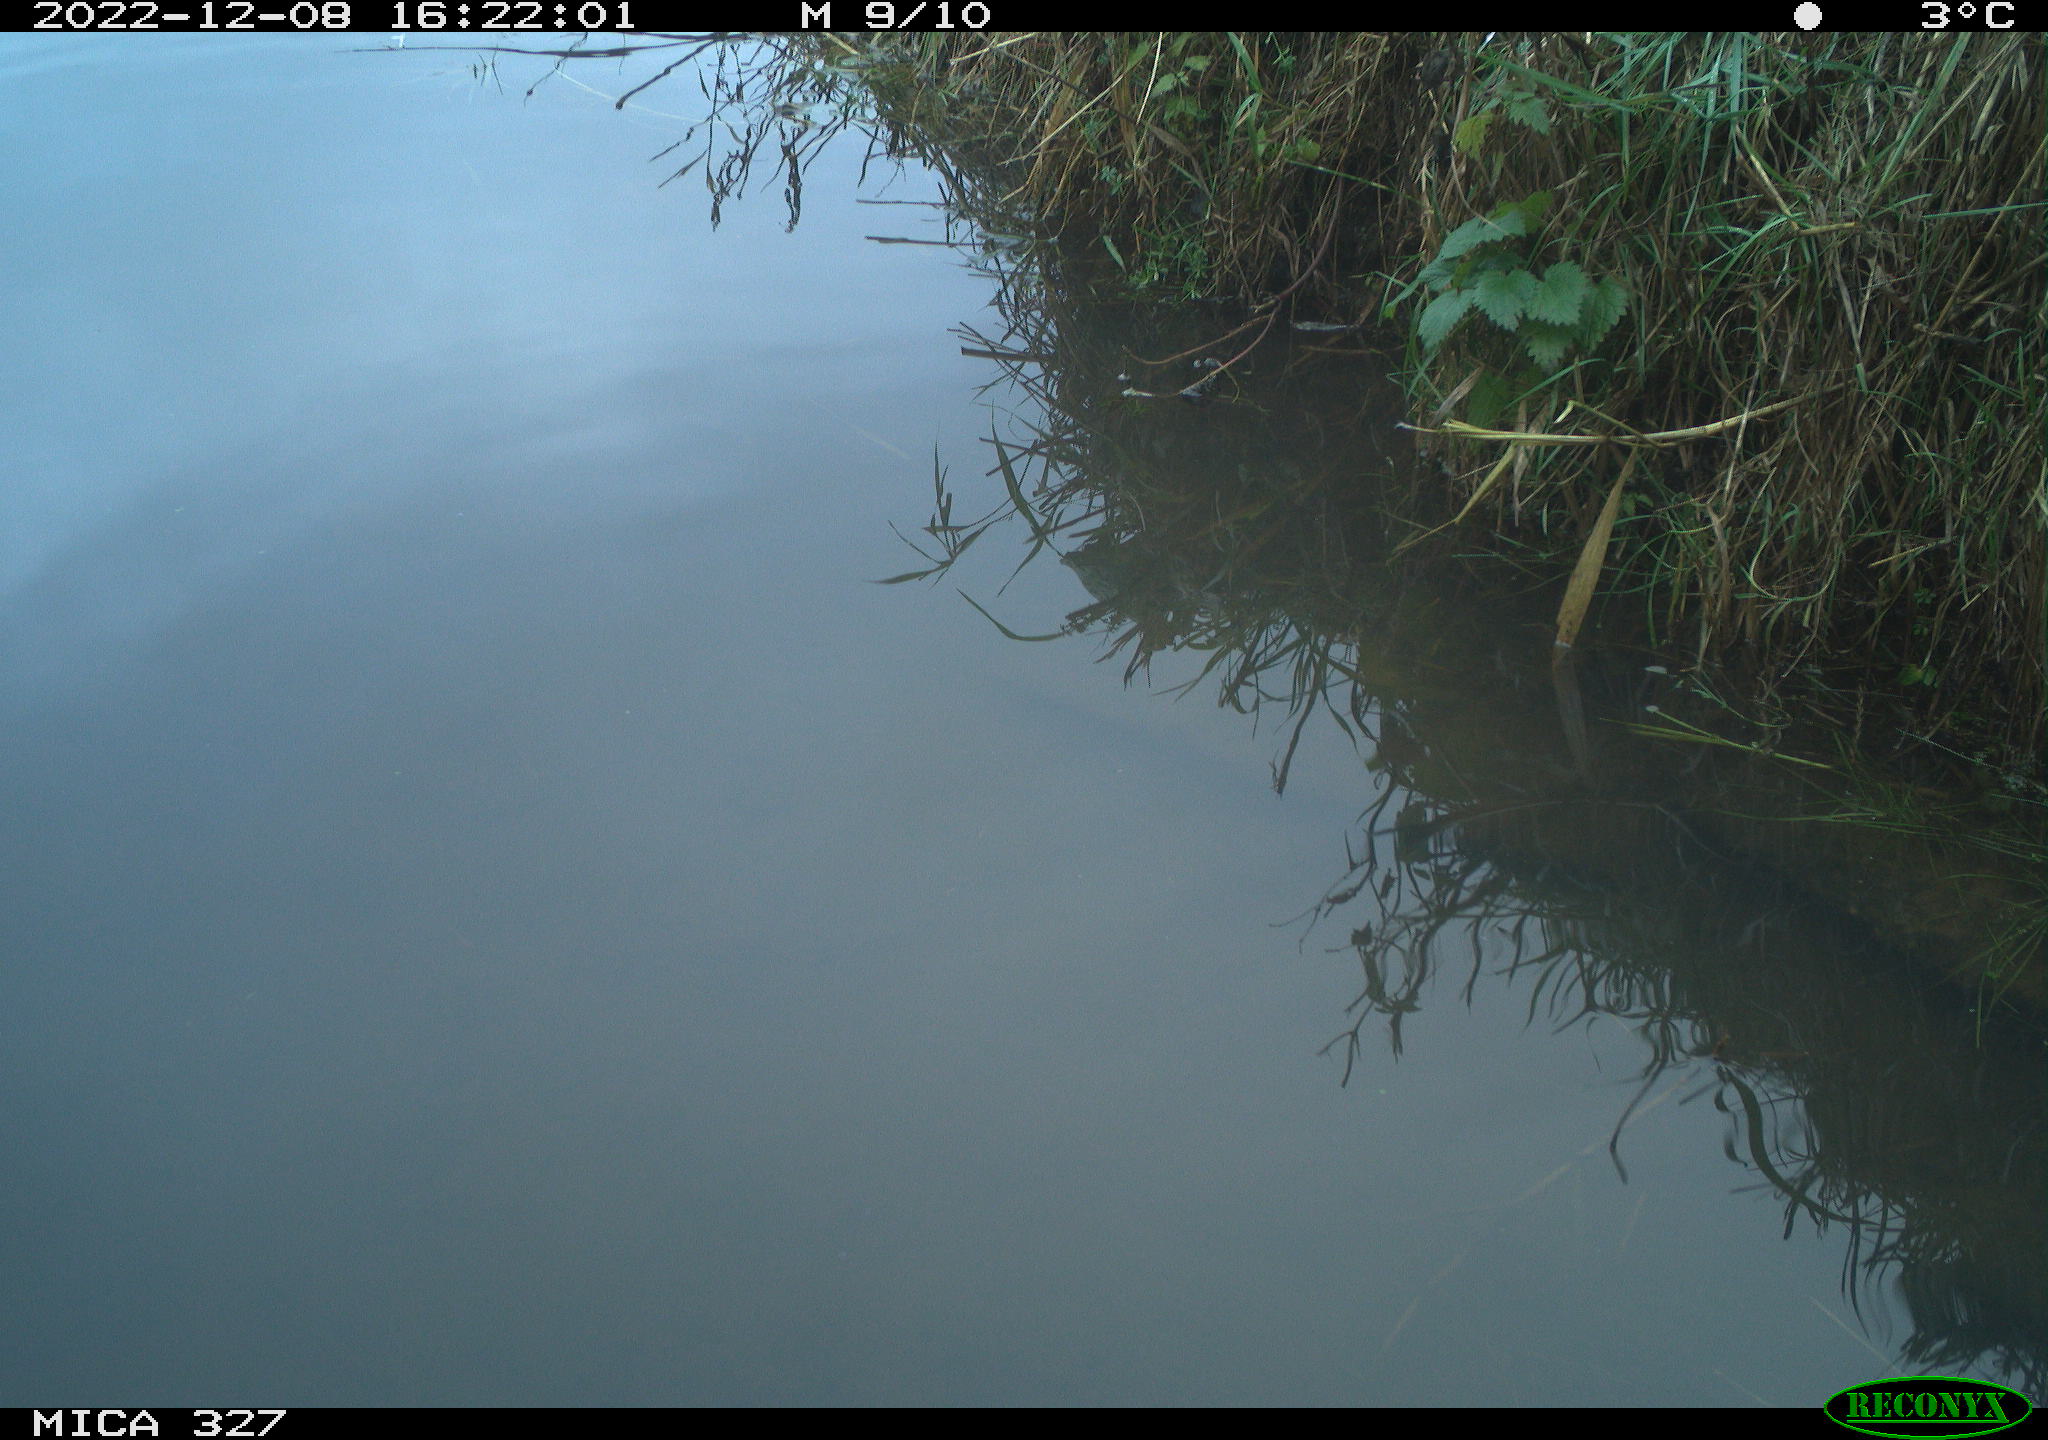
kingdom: Animalia
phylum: Chordata
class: Aves
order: Gruiformes
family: Rallidae
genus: Gallinula
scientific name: Gallinula chloropus
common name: Common moorhen
